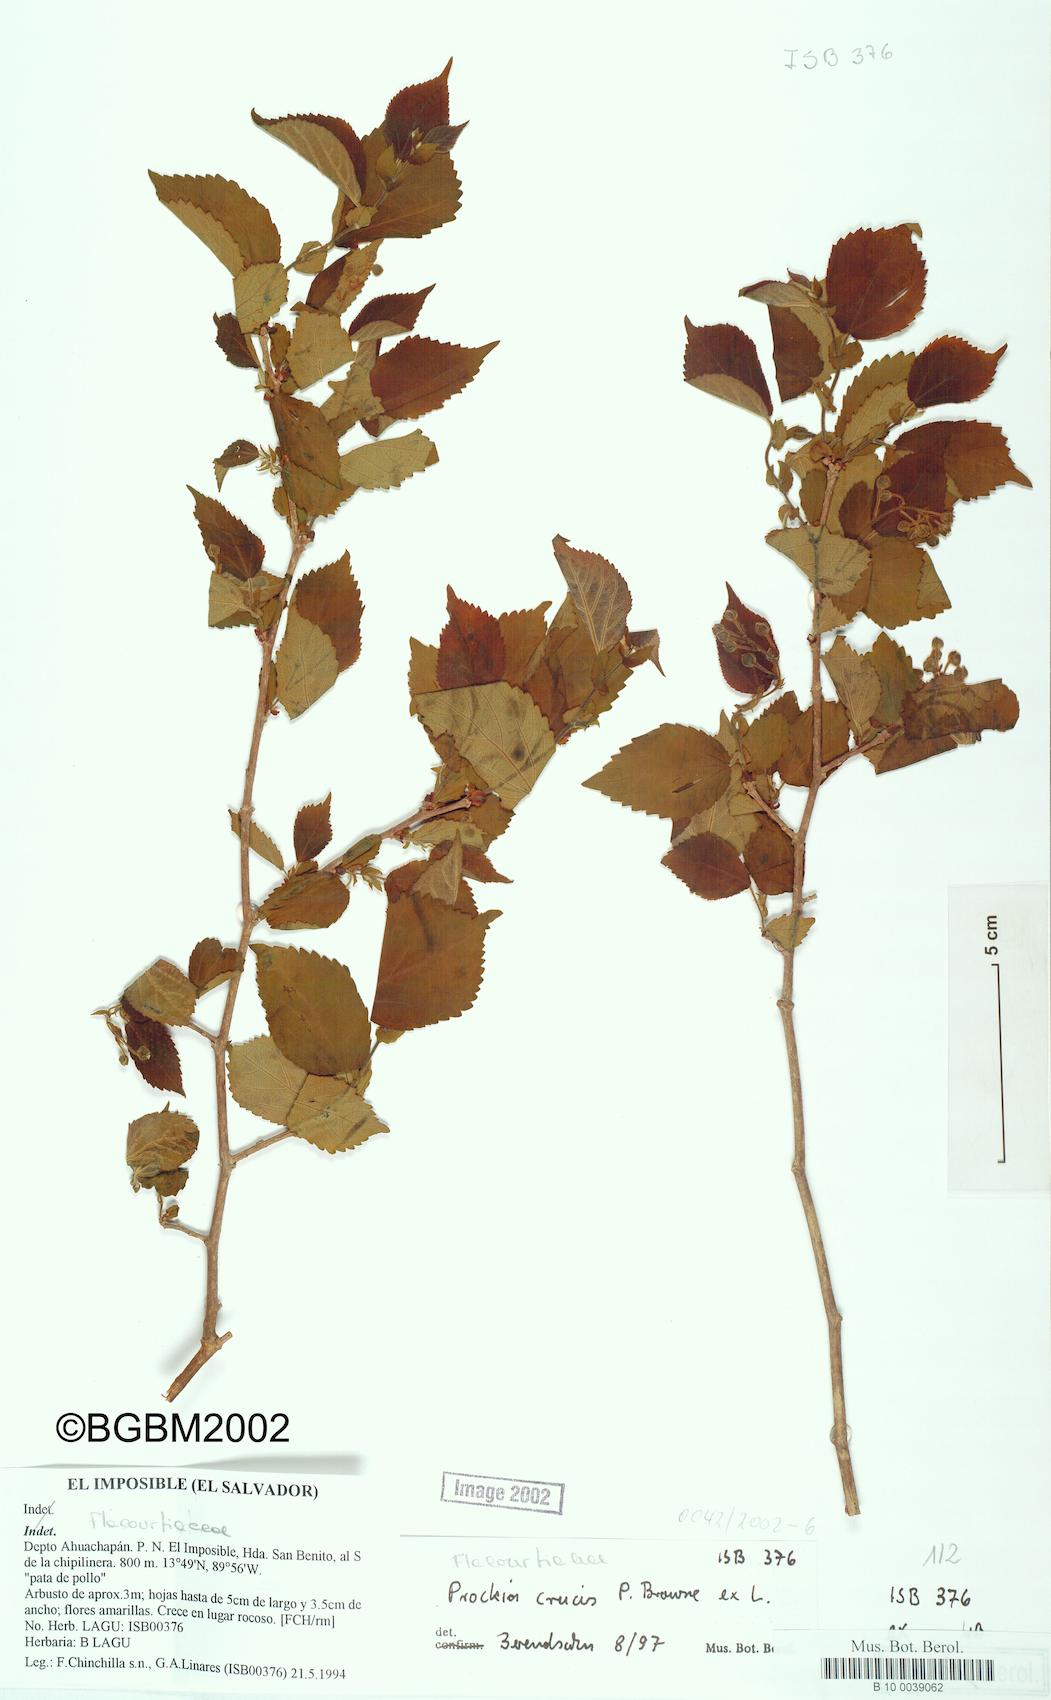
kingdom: Plantae
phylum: Tracheophyta
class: Magnoliopsida
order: Malpighiales
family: Salicaceae
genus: Prockia
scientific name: Prockia crucis
